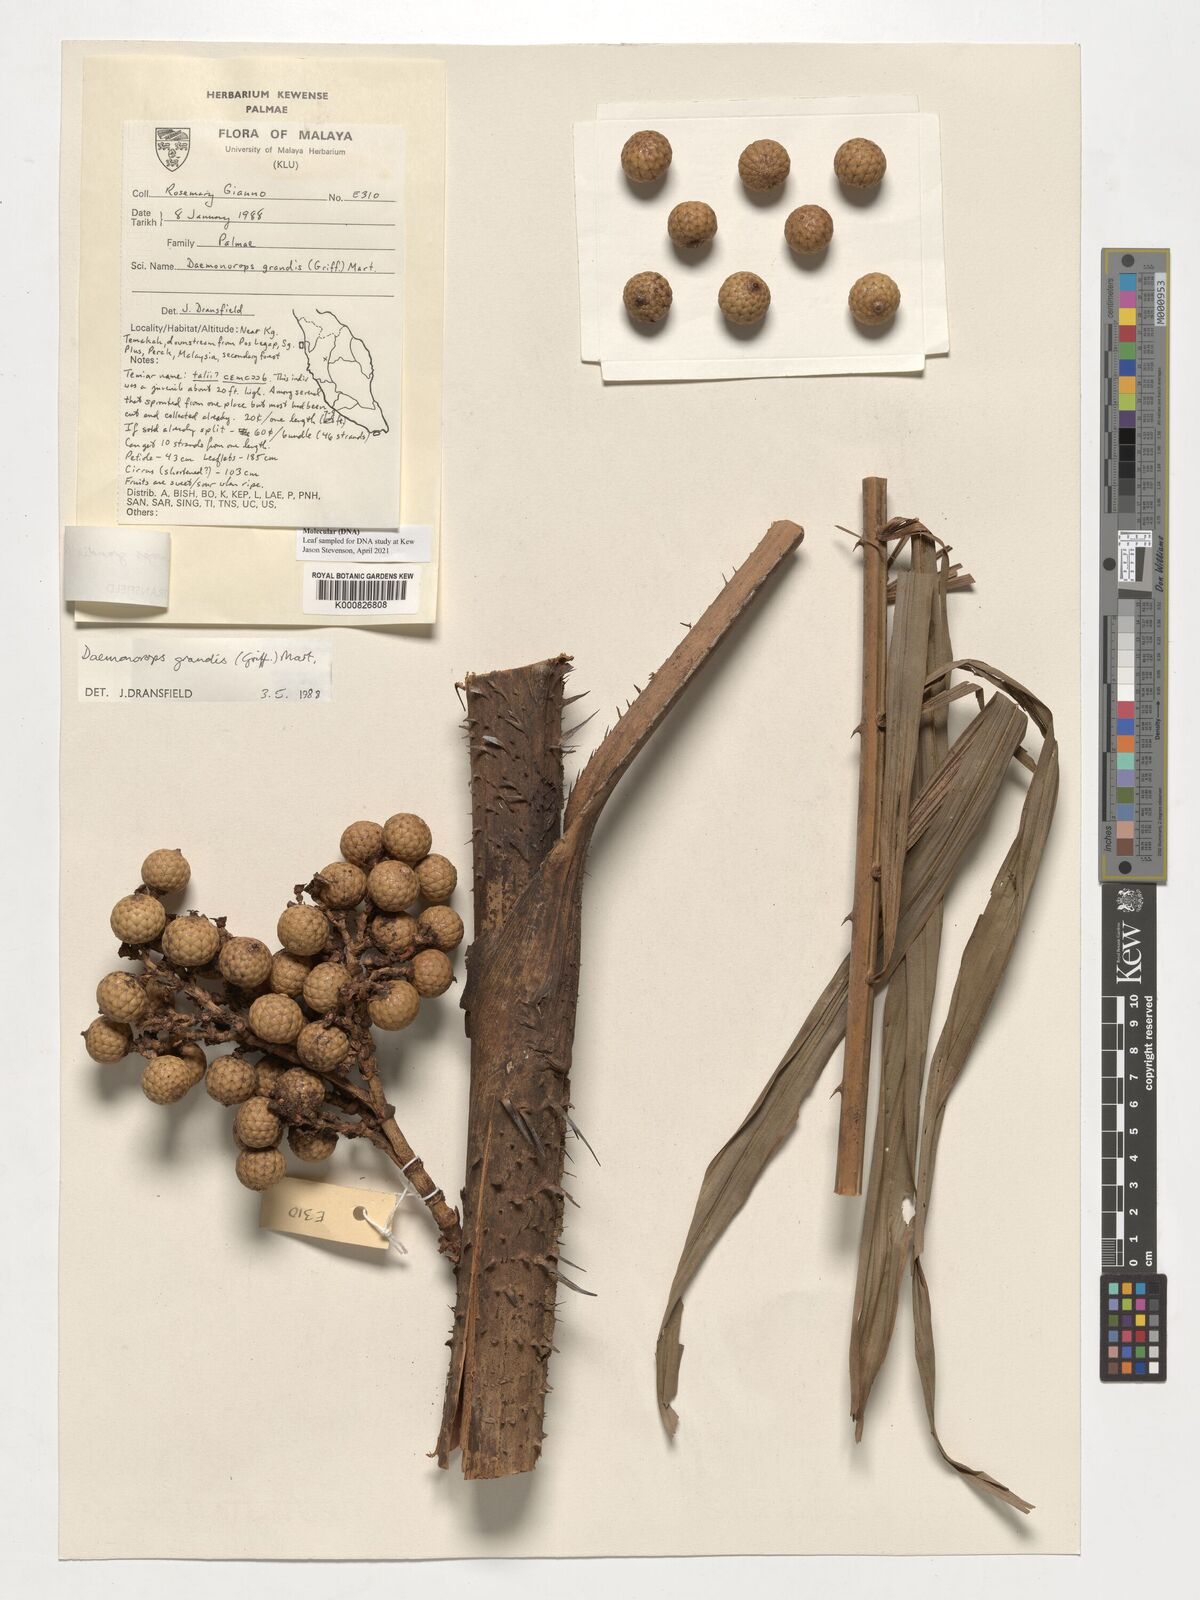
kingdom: Plantae
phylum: Tracheophyta
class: Liliopsida
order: Arecales
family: Arecaceae
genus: Calamus
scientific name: Calamus melanochaetes
